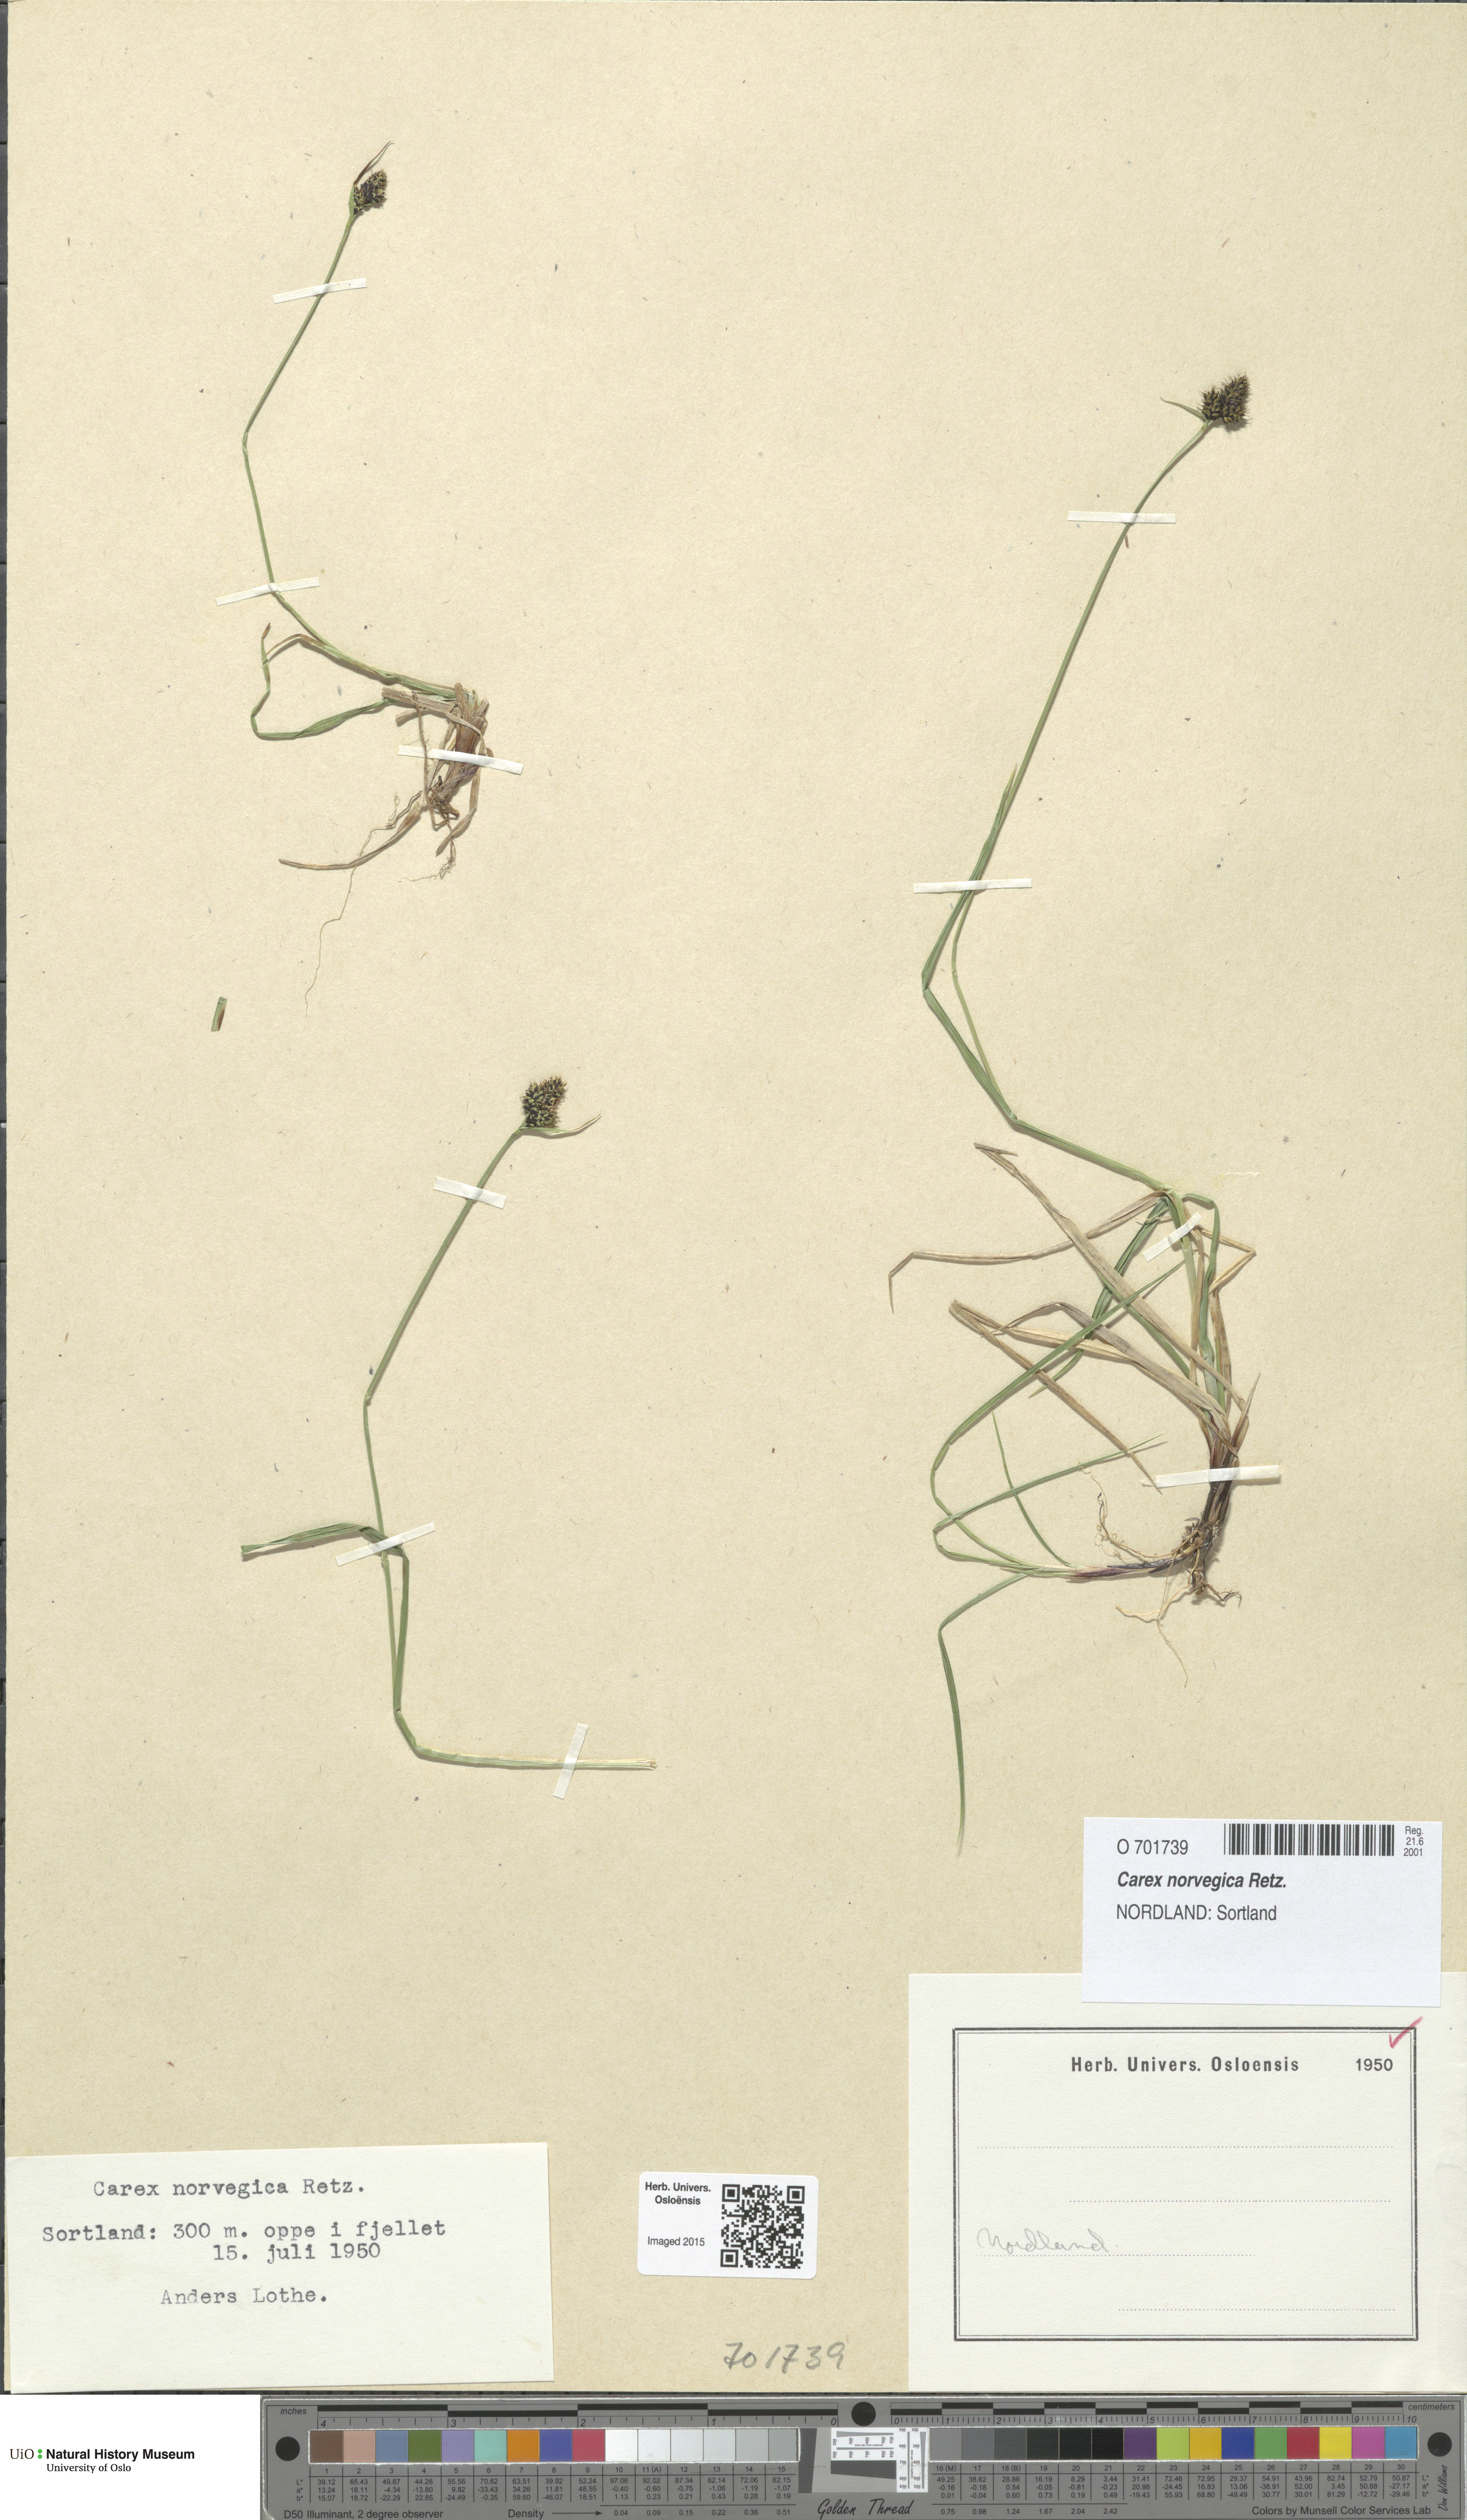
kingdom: Plantae
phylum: Tracheophyta
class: Liliopsida
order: Poales
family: Cyperaceae
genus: Carex
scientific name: Carex norvegica
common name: Close-headed alpine-sedge
